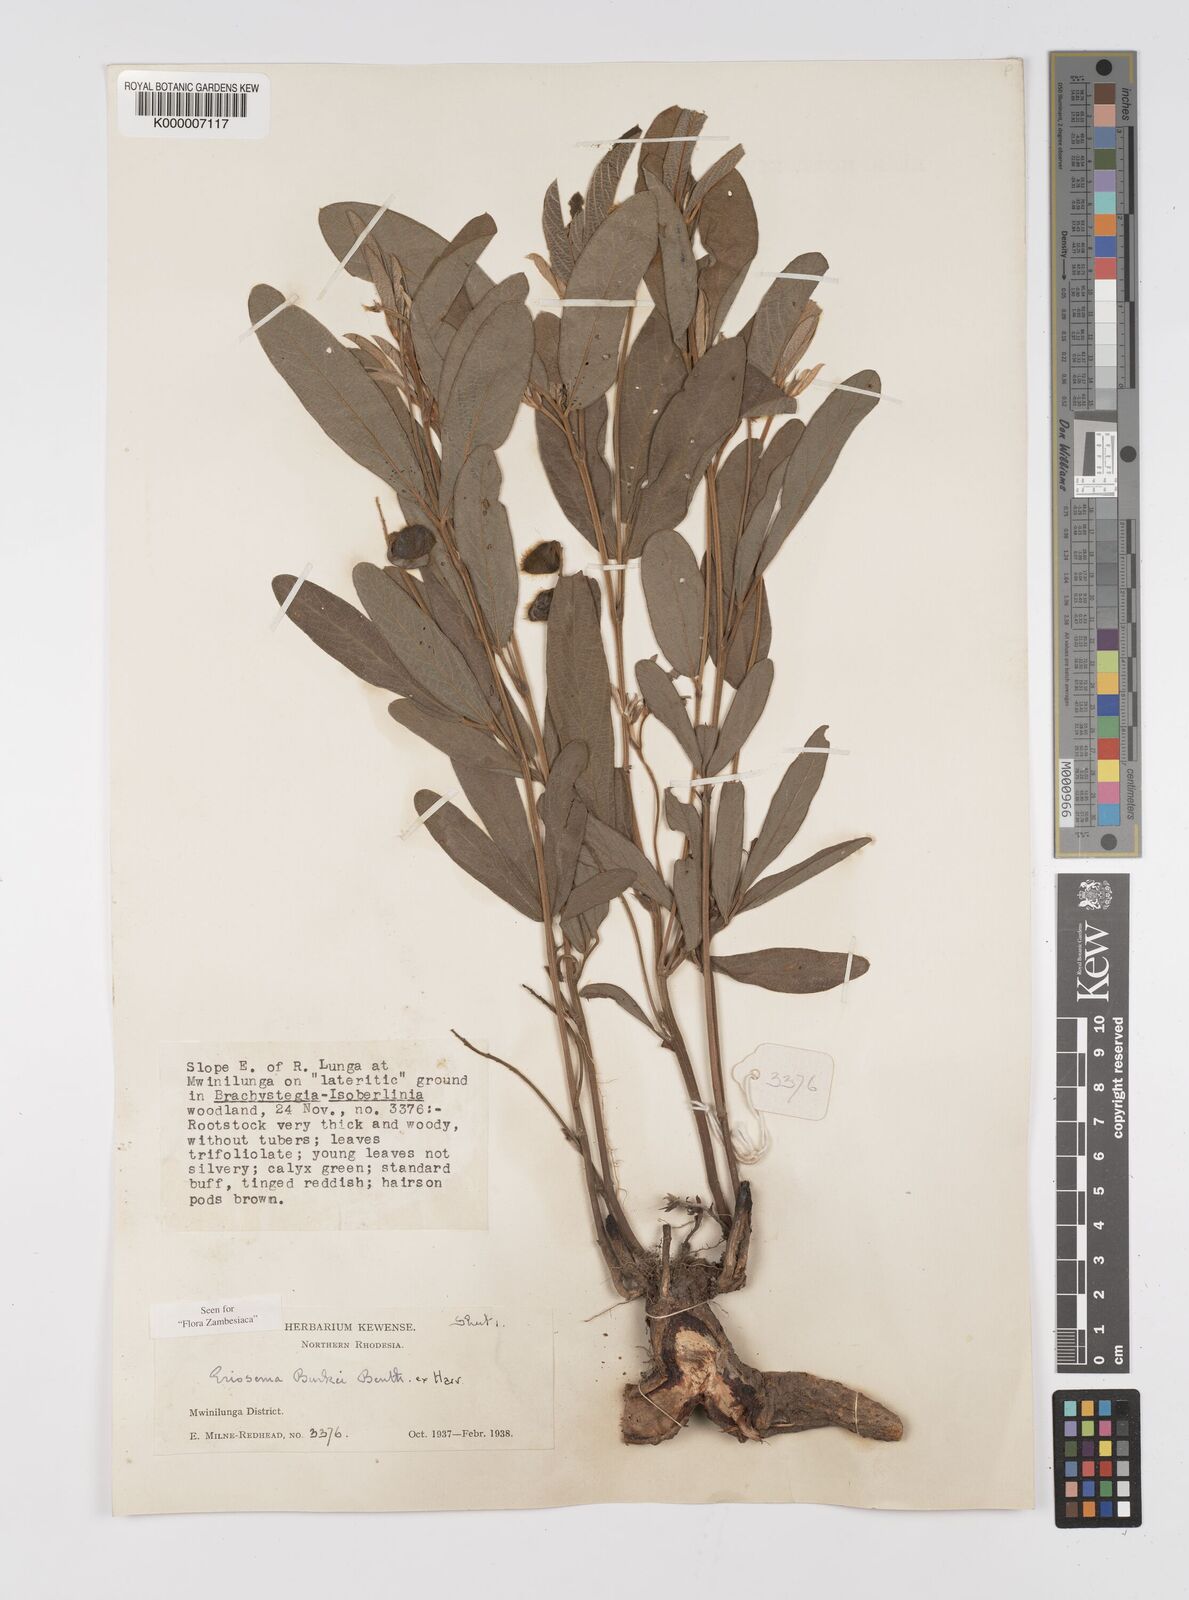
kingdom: Plantae
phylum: Tracheophyta
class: Magnoliopsida
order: Fabales
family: Fabaceae
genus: Eriosema
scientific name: Eriosema burkei
